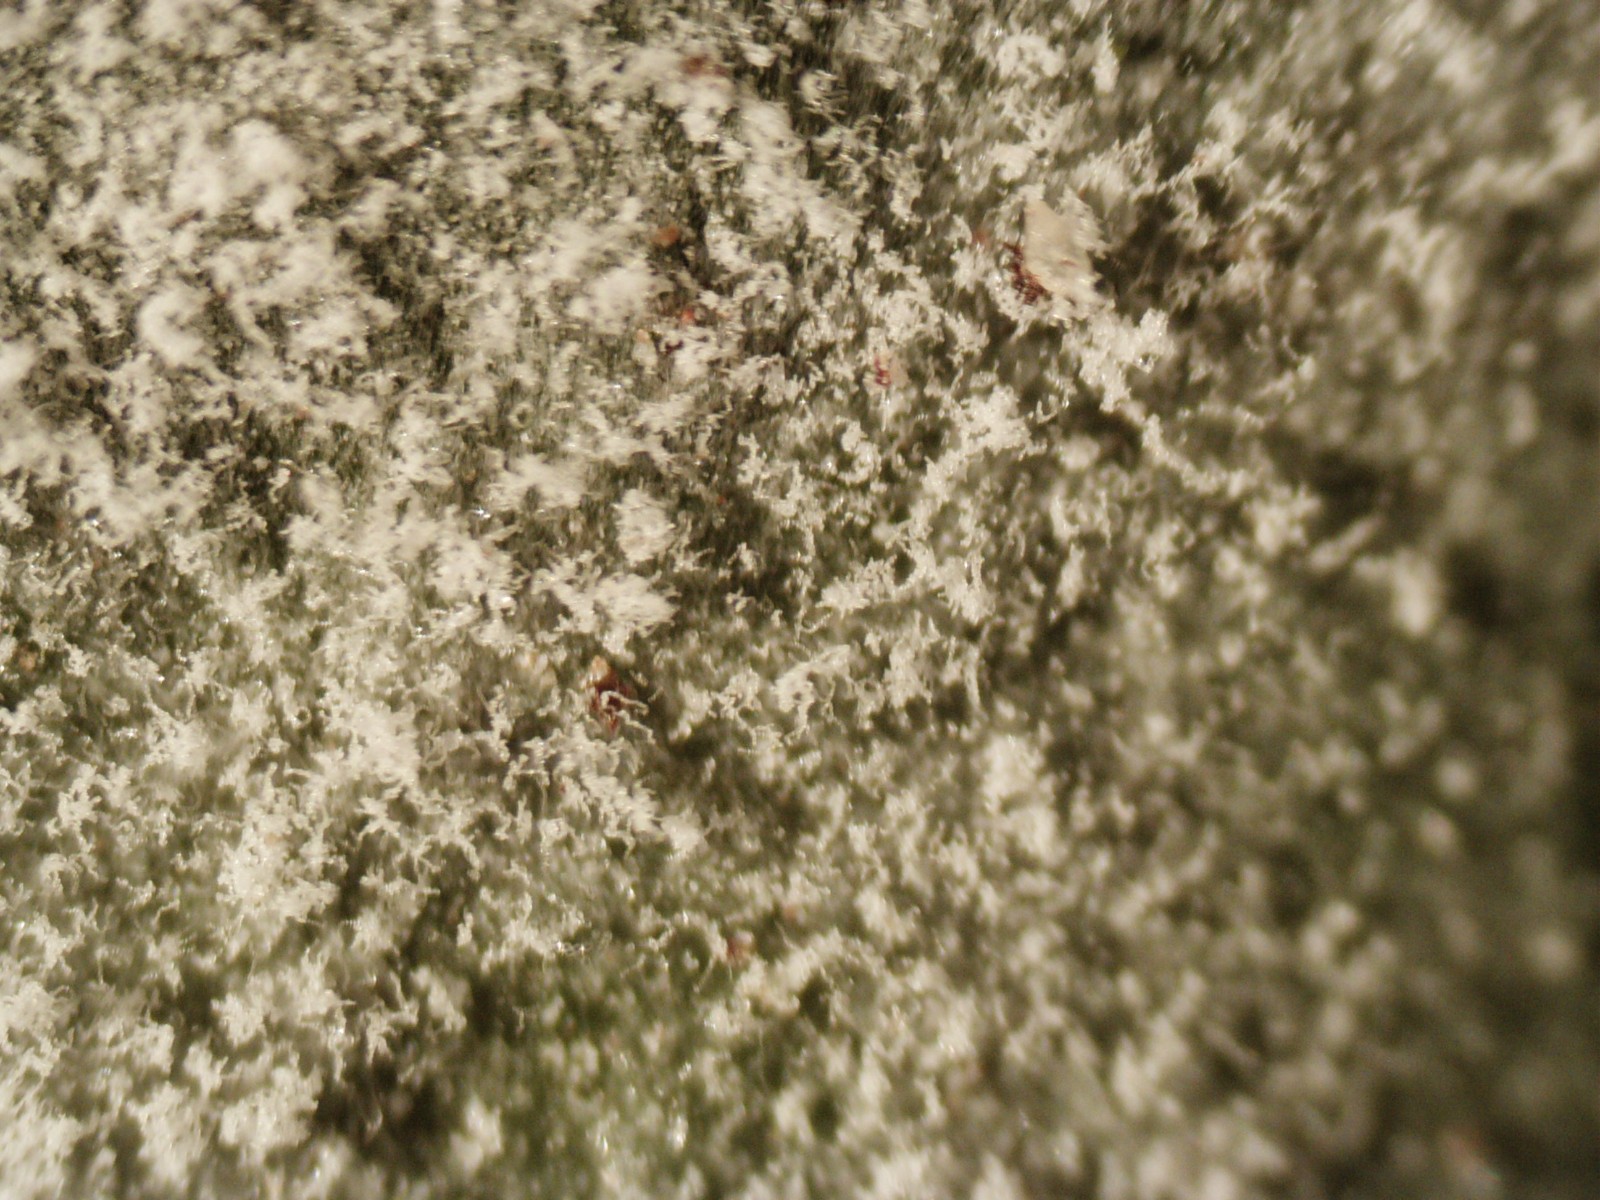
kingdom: Fungi
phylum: Ascomycota
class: Leotiomycetes
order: Helotiales
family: Erysiphaceae
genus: Sawadaea
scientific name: Sawadaea tulasnei
